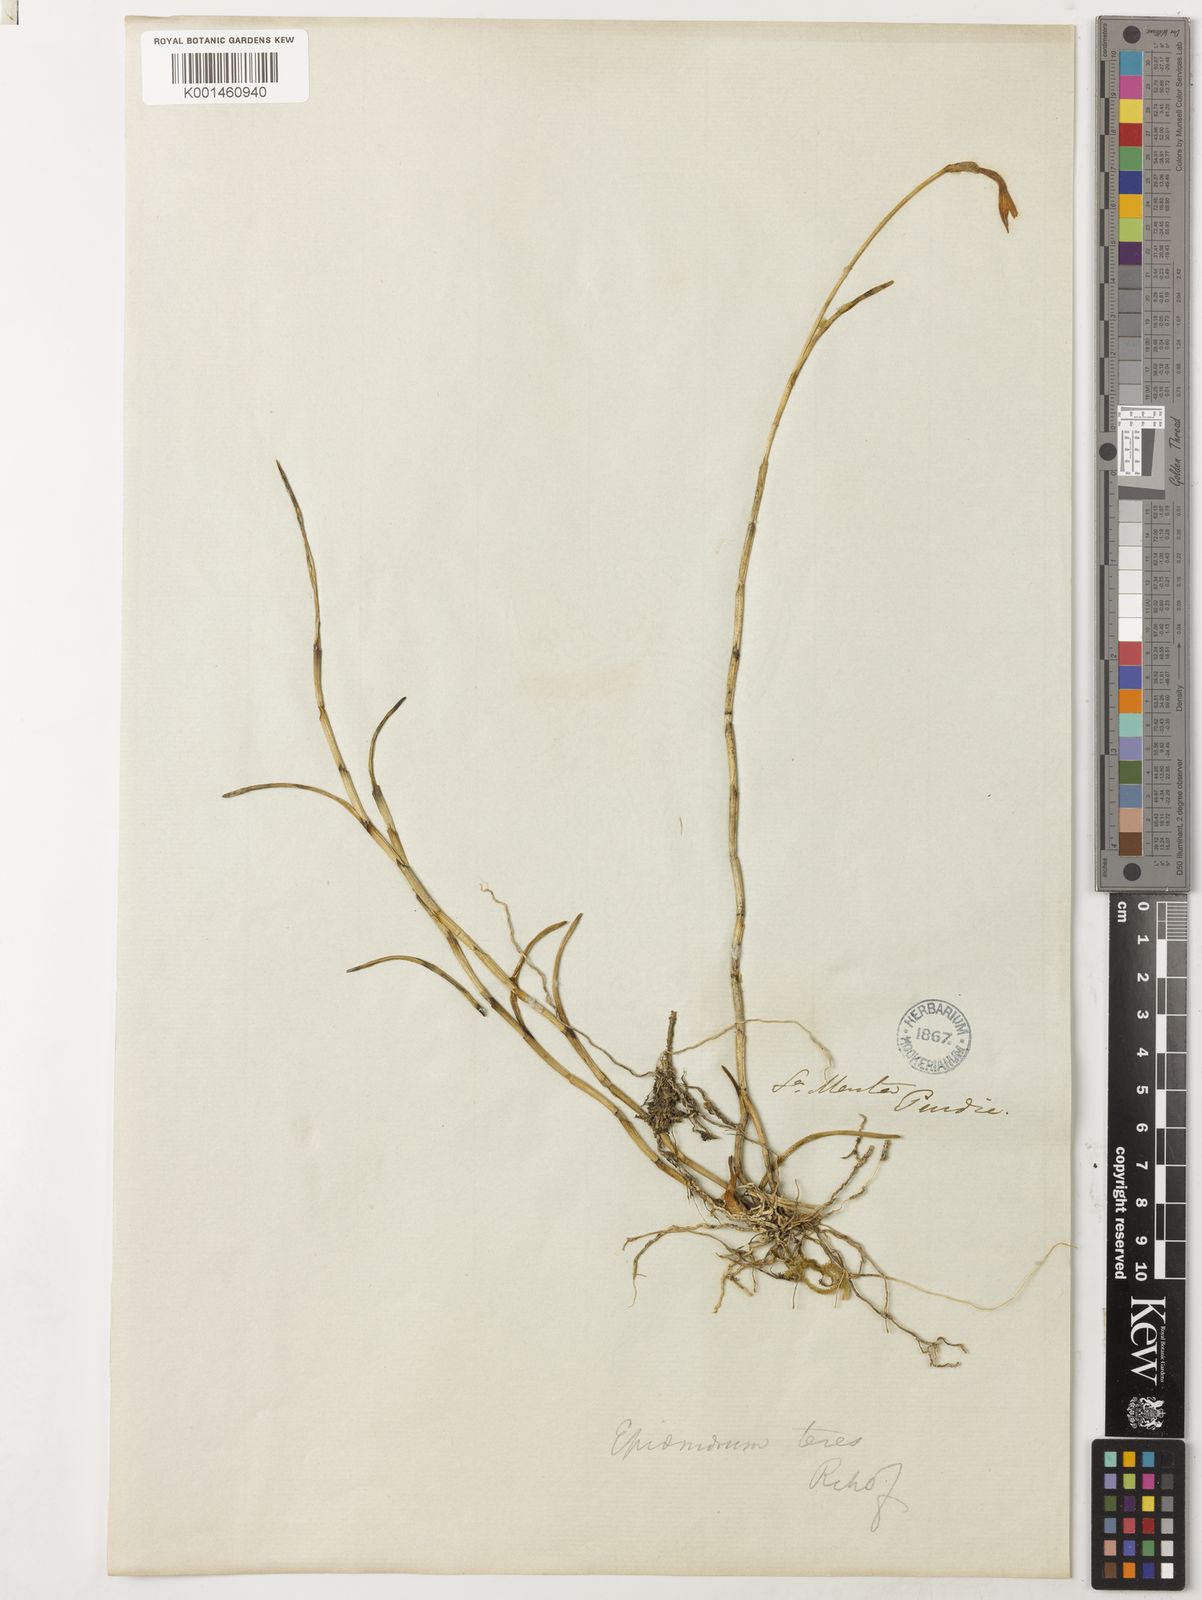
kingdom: Plantae
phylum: Tracheophyta
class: Liliopsida
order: Asparagales
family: Orchidaceae
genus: Jacquiniella
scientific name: Jacquiniella teretifolia
